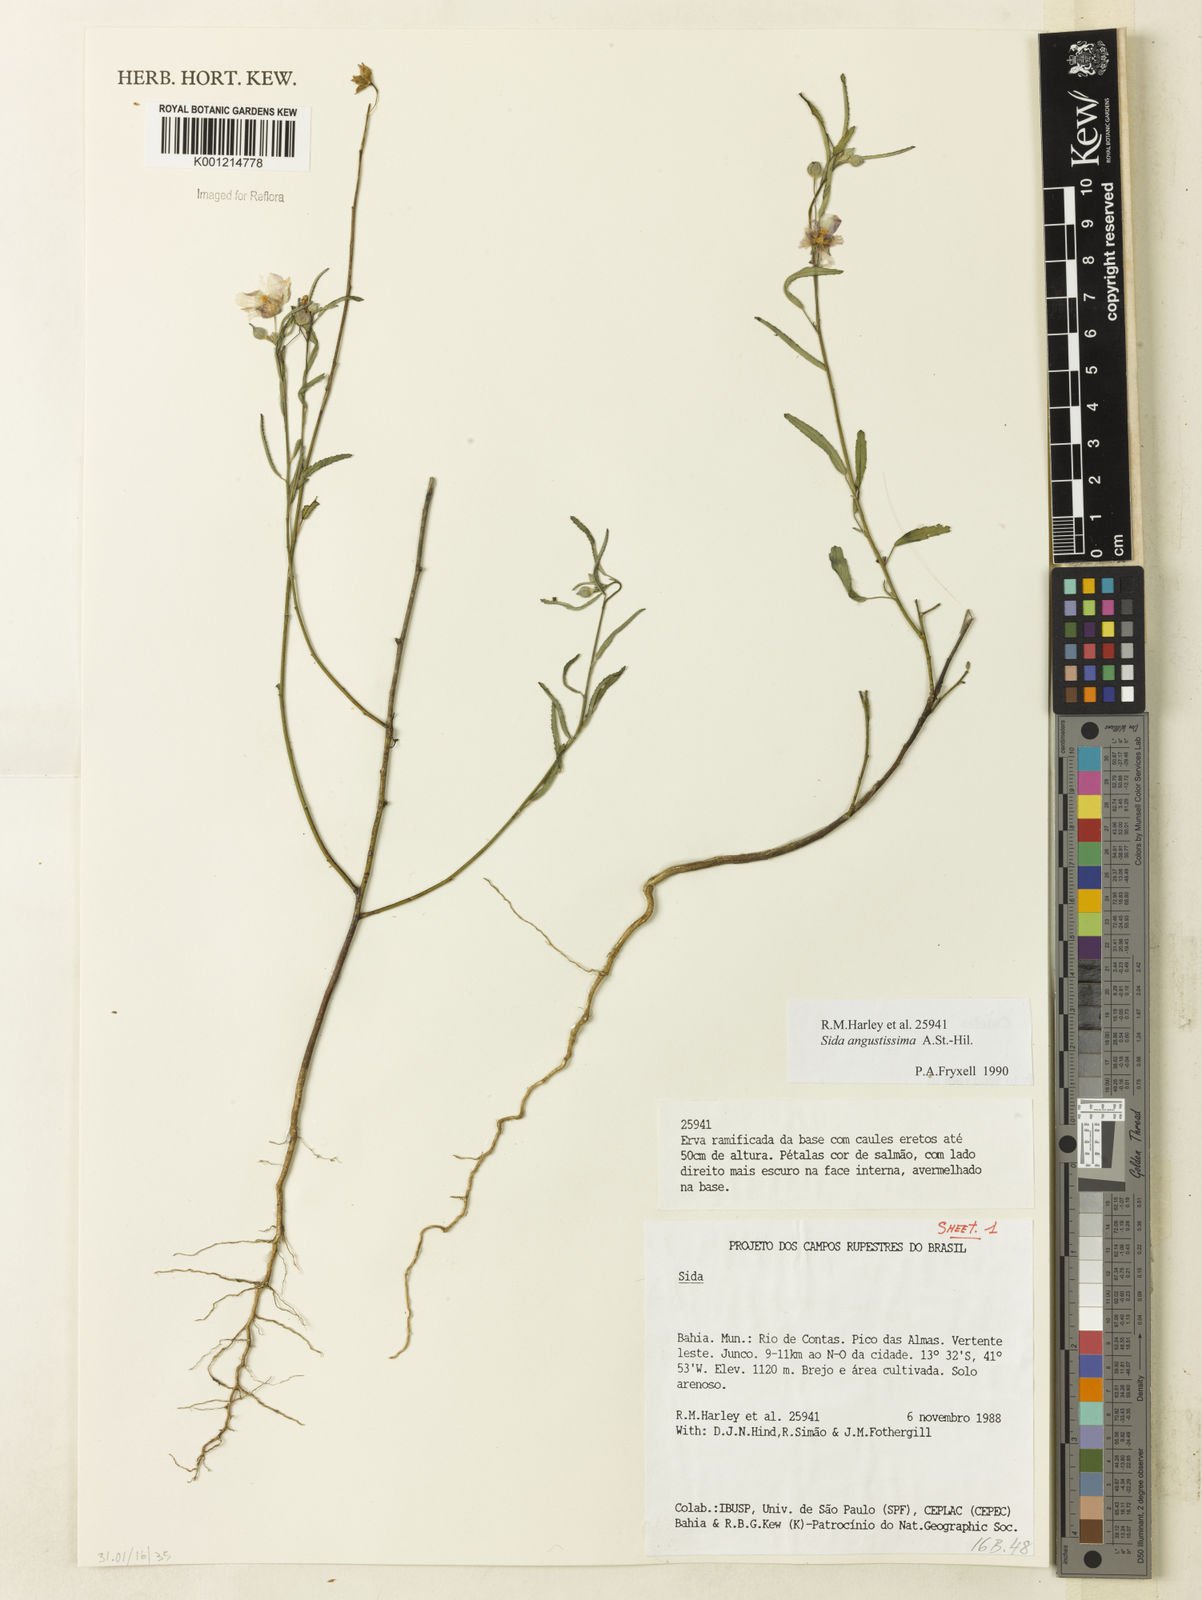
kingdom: Plantae
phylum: Tracheophyta
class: Magnoliopsida
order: Malvales
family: Malvaceae
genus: Sida
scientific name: Sida angustissima
